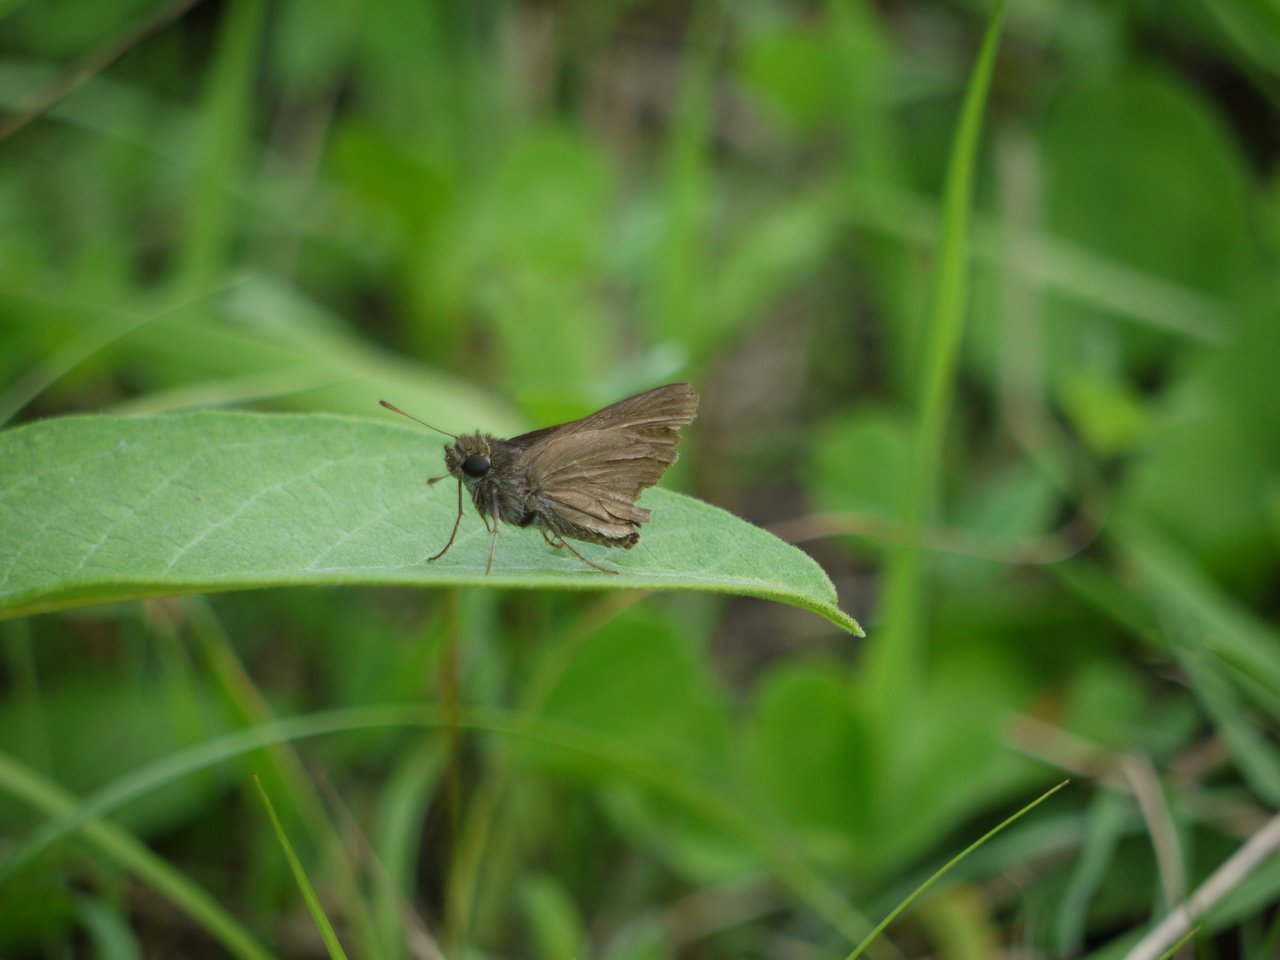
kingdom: Animalia
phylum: Arthropoda
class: Insecta
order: Lepidoptera
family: Hesperiidae
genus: Euphyes
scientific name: Euphyes vestris
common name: Dun Skipper
